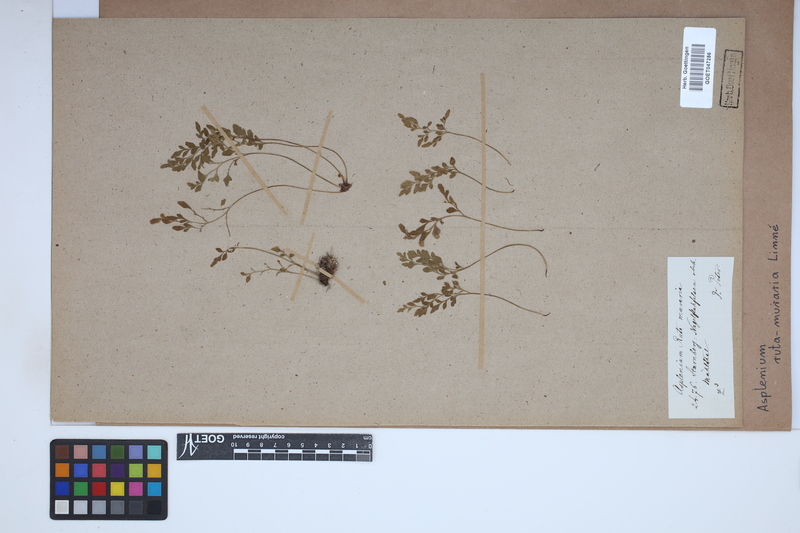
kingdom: Plantae
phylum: Tracheophyta
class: Polypodiopsida
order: Polypodiales
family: Aspleniaceae
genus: Asplenium
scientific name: Asplenium ruta-muraria
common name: Wall-rue
